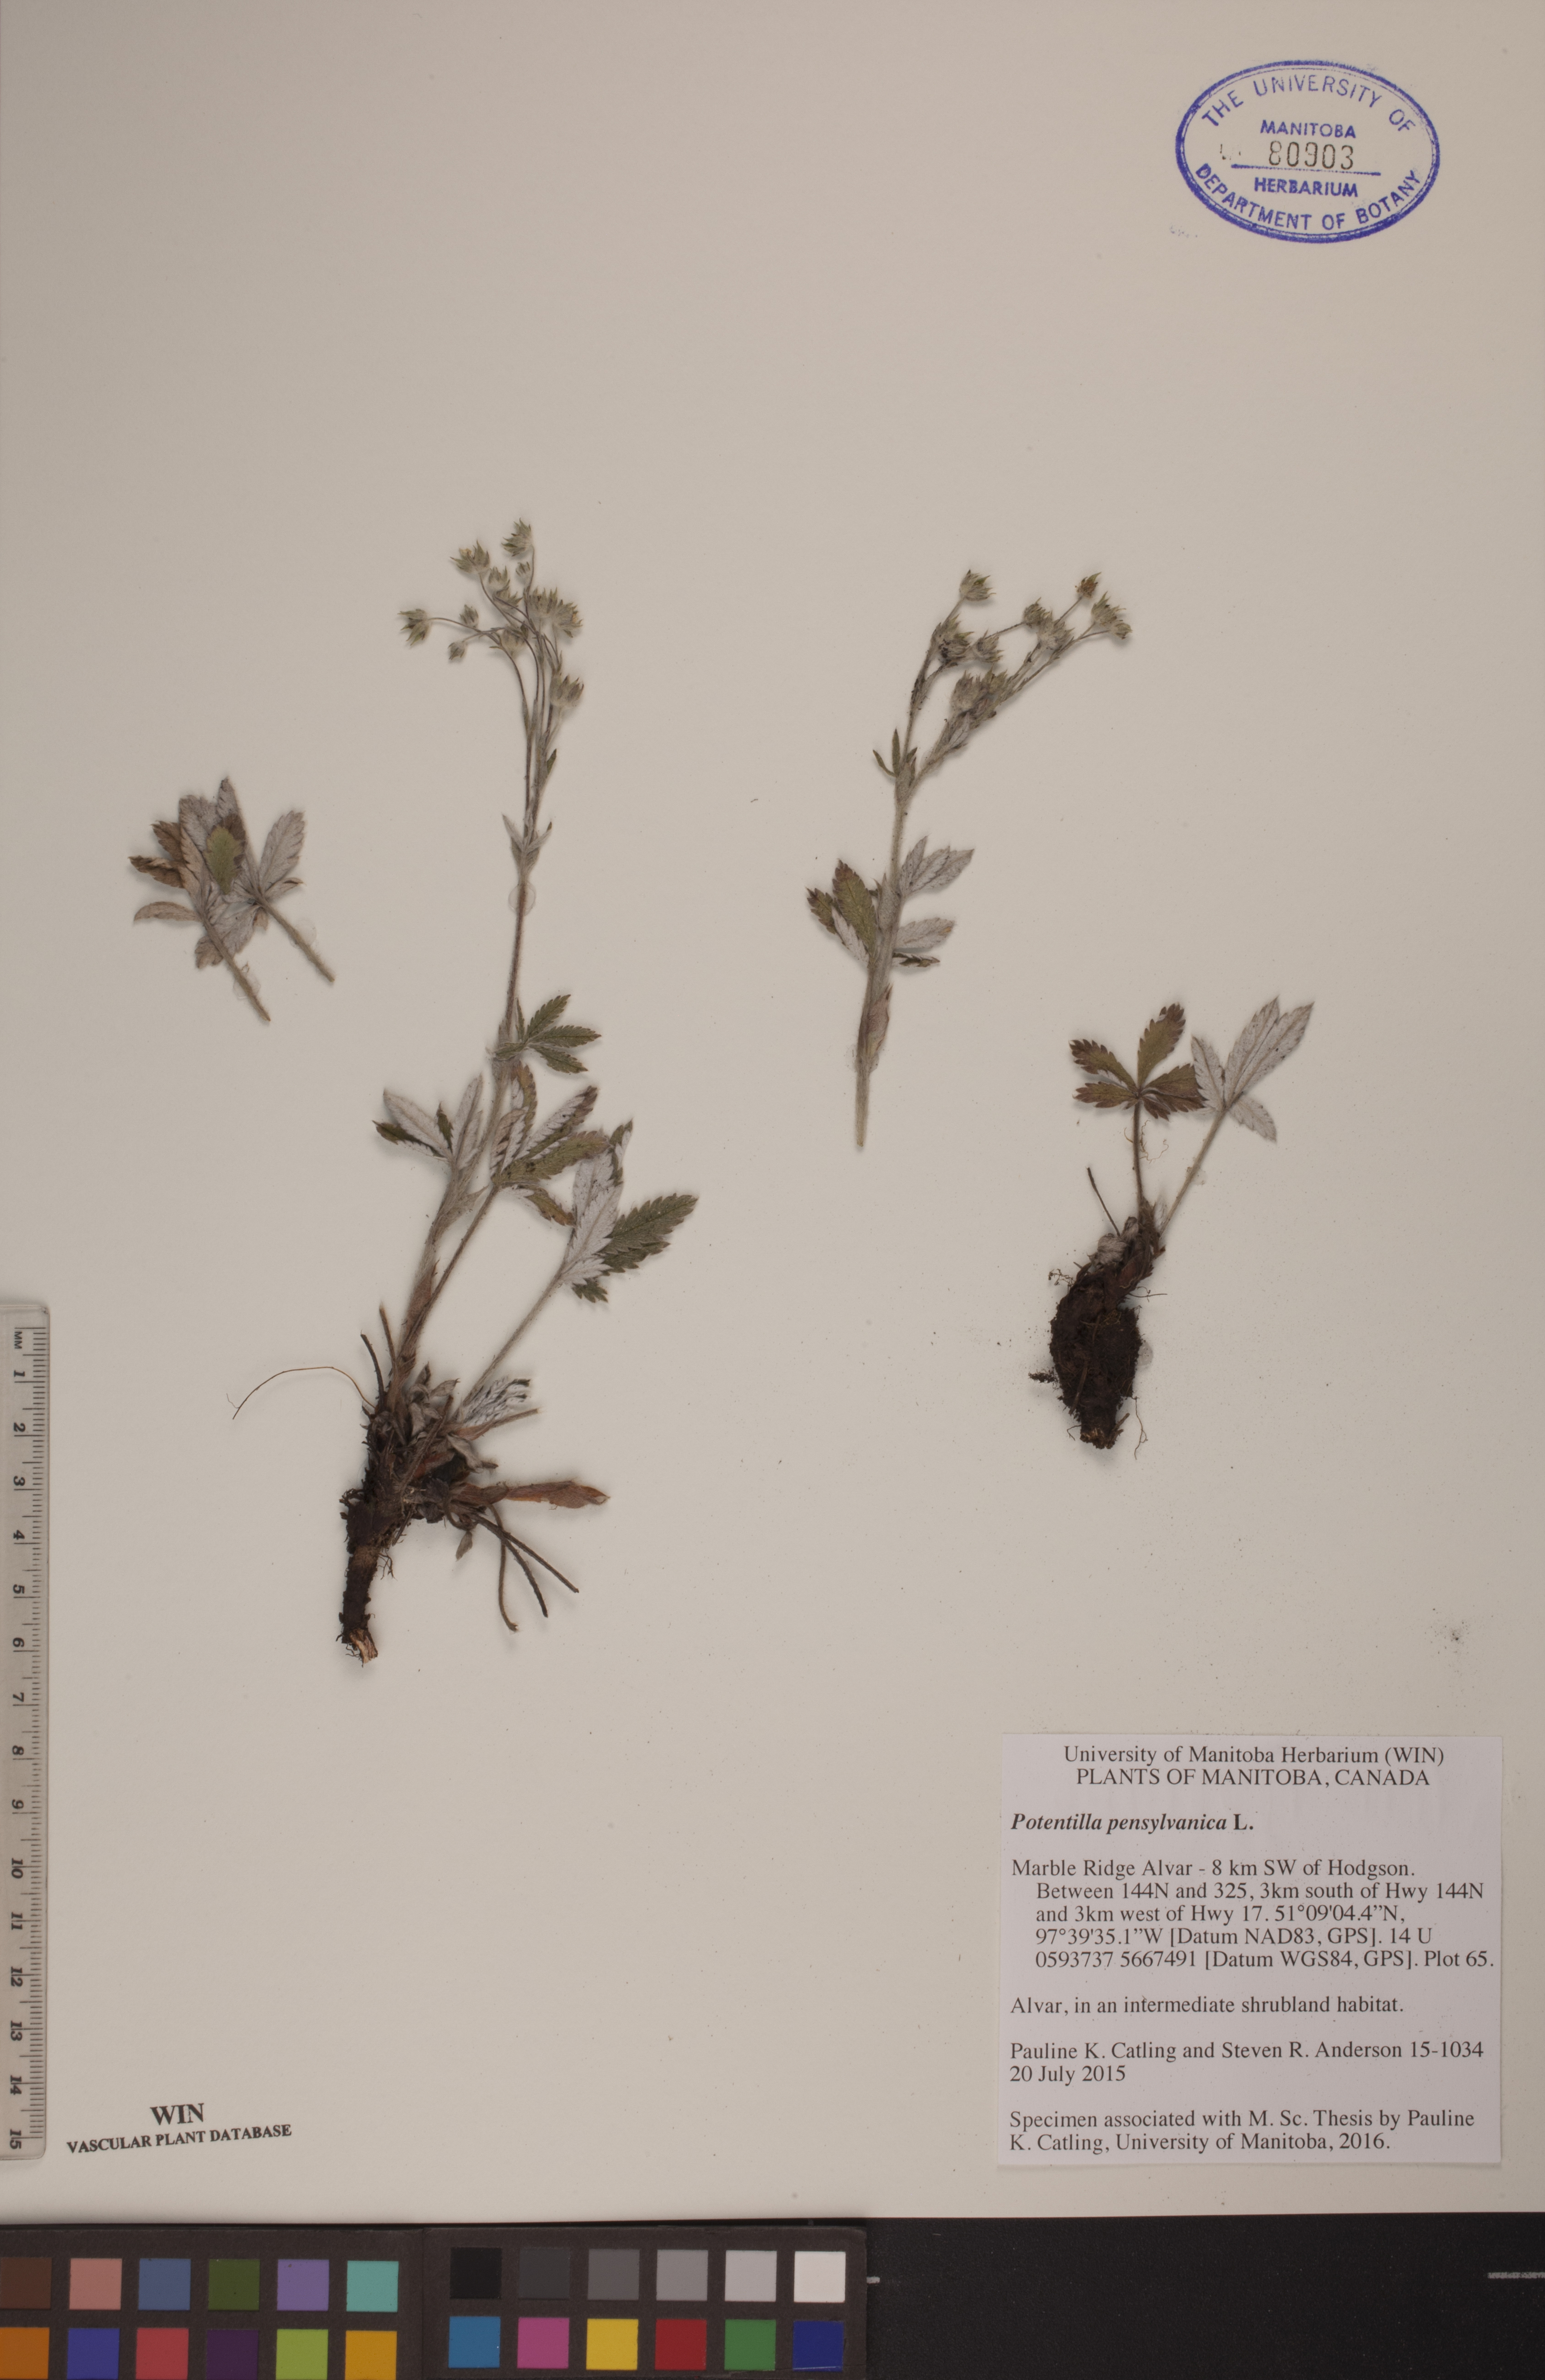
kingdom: Plantae
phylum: Tracheophyta
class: Magnoliopsida
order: Rosales
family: Rosaceae
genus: Potentilla
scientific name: Potentilla pensylvanica
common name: Pennsylvania cinquefoil
